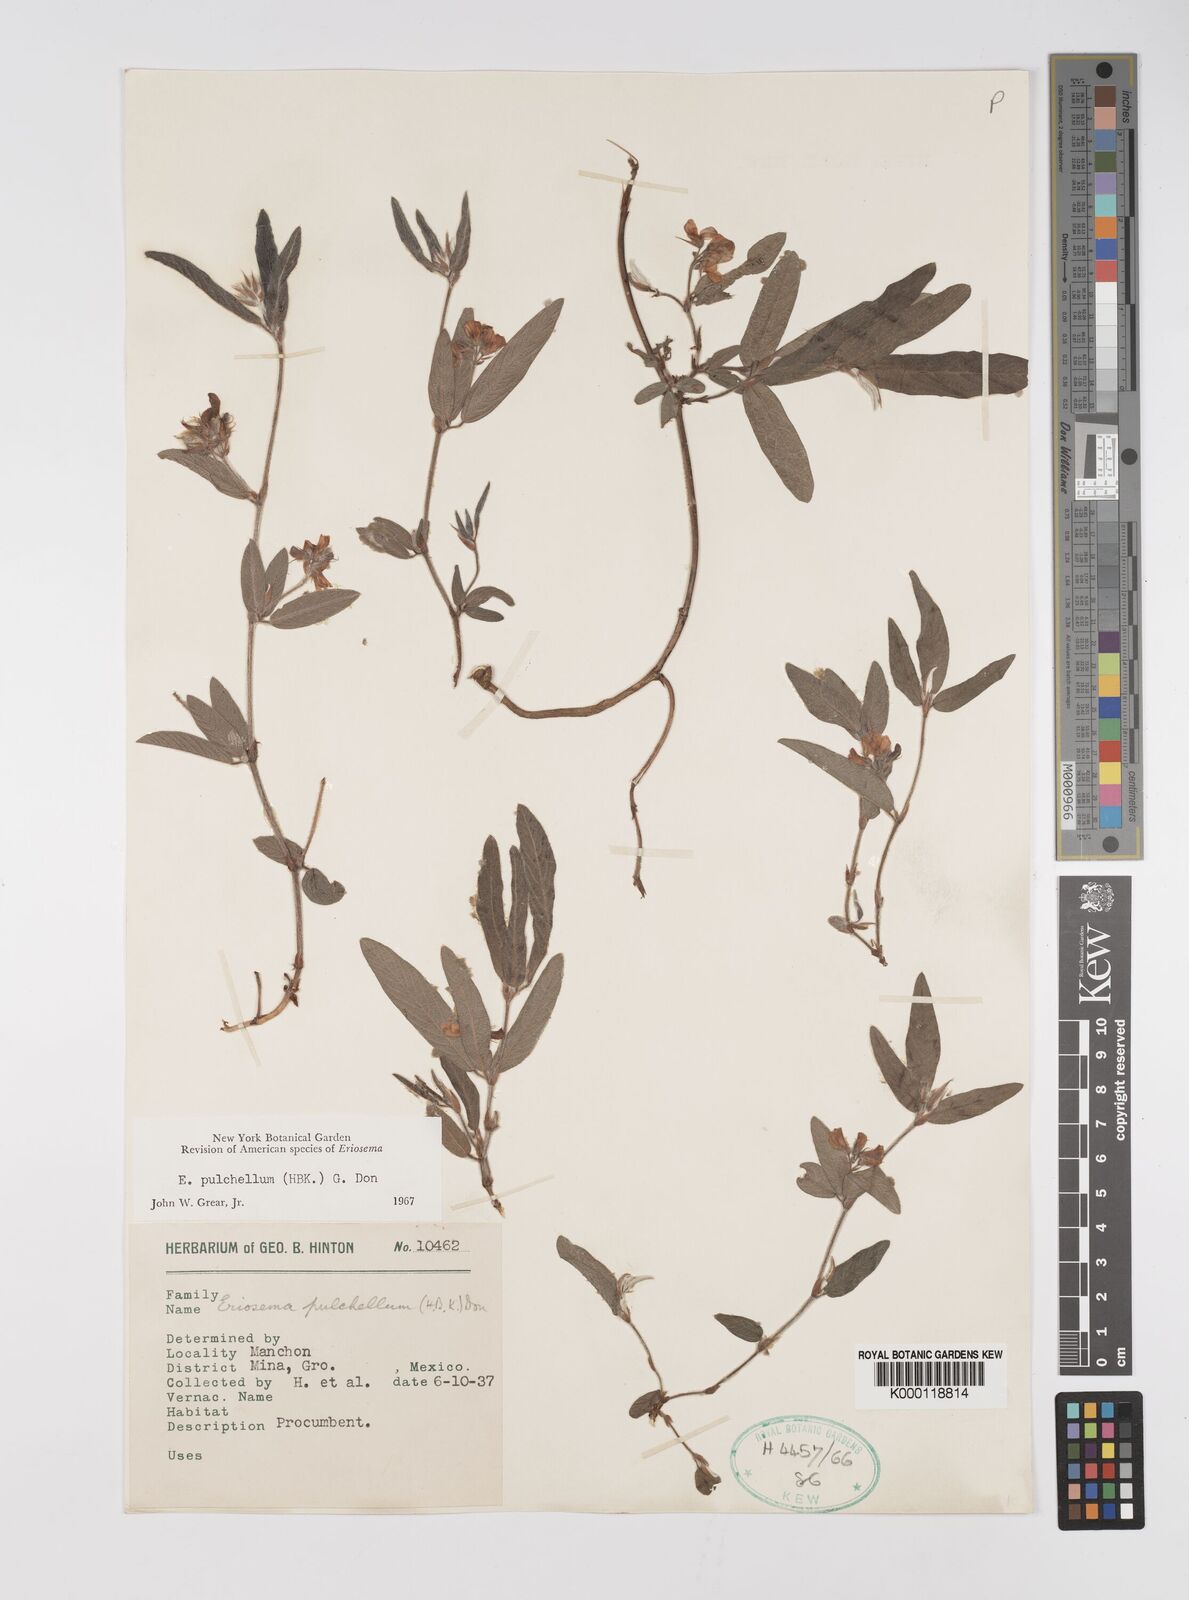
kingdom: Plantae
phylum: Tracheophyta
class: Magnoliopsida
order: Fabales
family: Fabaceae
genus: Eriosema
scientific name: Eriosema pulchellum
